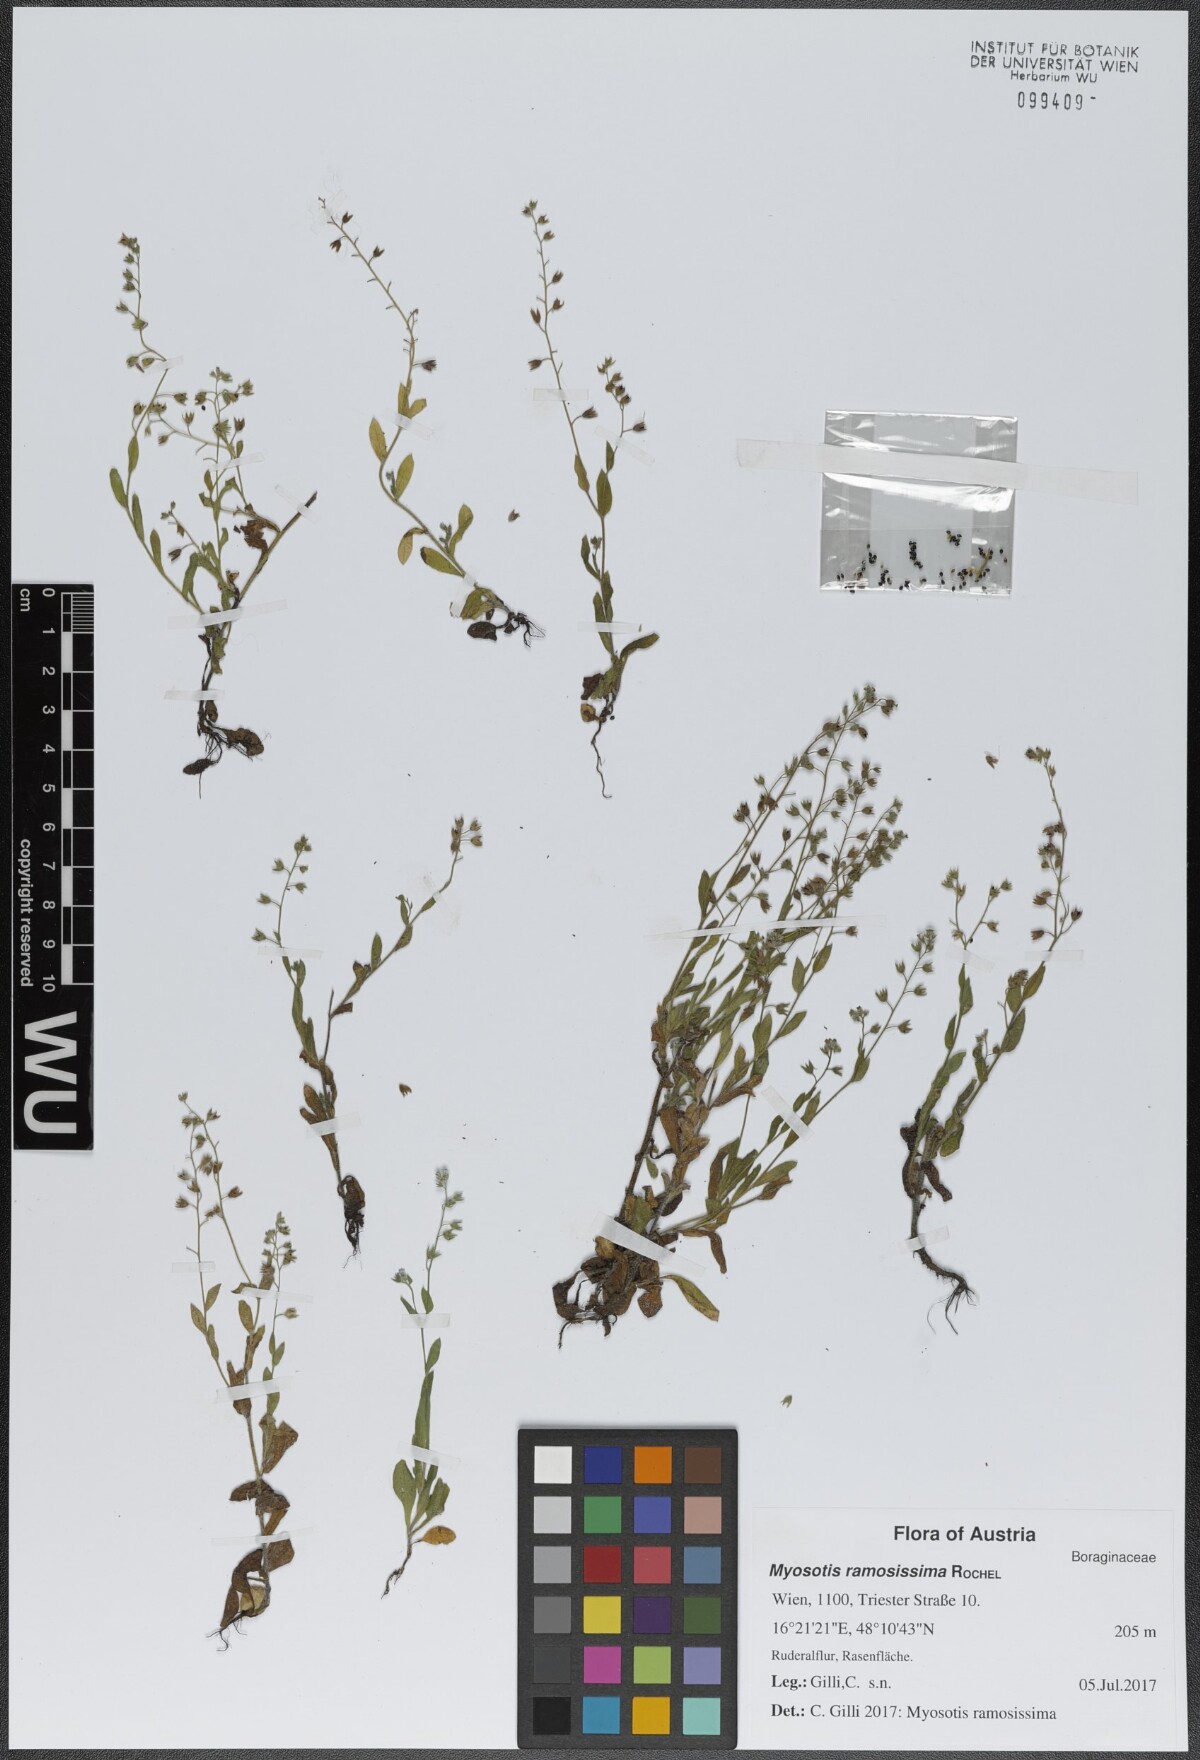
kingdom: Plantae
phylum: Tracheophyta
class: Magnoliopsida
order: Boraginales
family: Boraginaceae
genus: Myosotis
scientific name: Myosotis ramosissima
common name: Early forget-me-not
